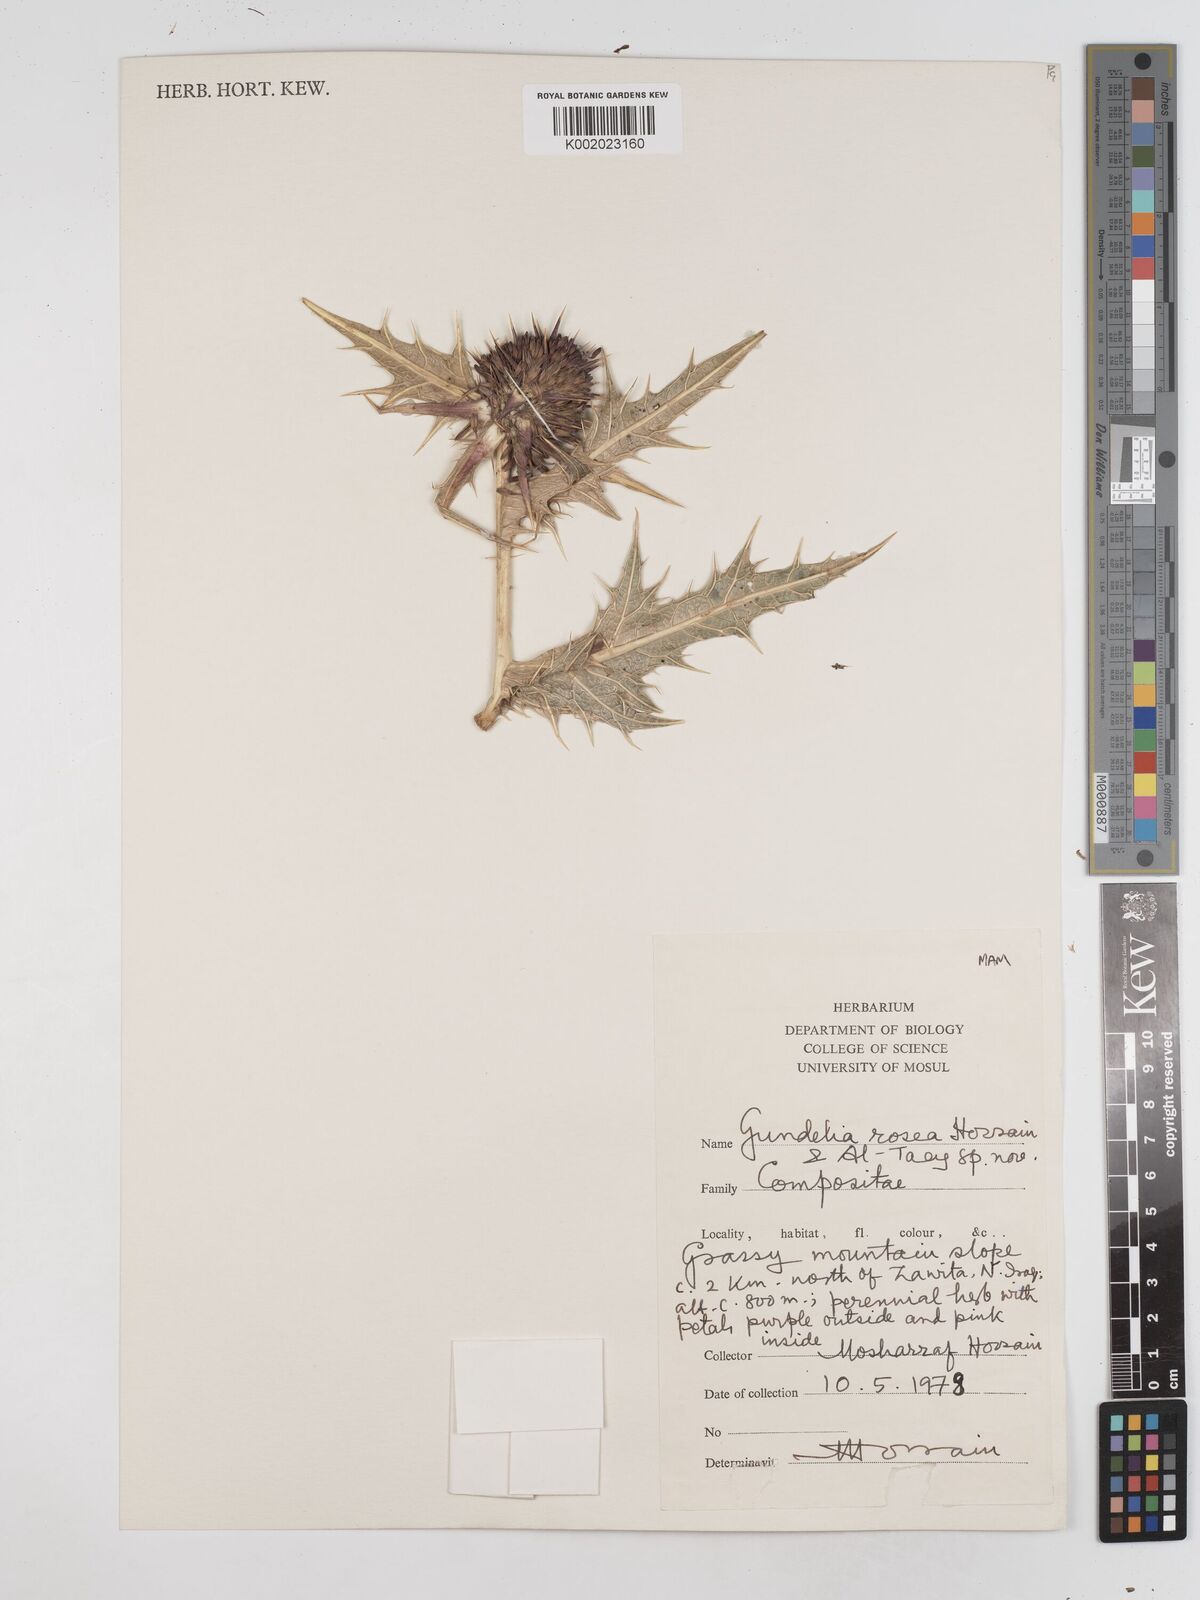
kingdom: Plantae
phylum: Tracheophyta
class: Magnoliopsida
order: Asterales
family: Asteraceae
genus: Gundelia
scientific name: Gundelia rosea
